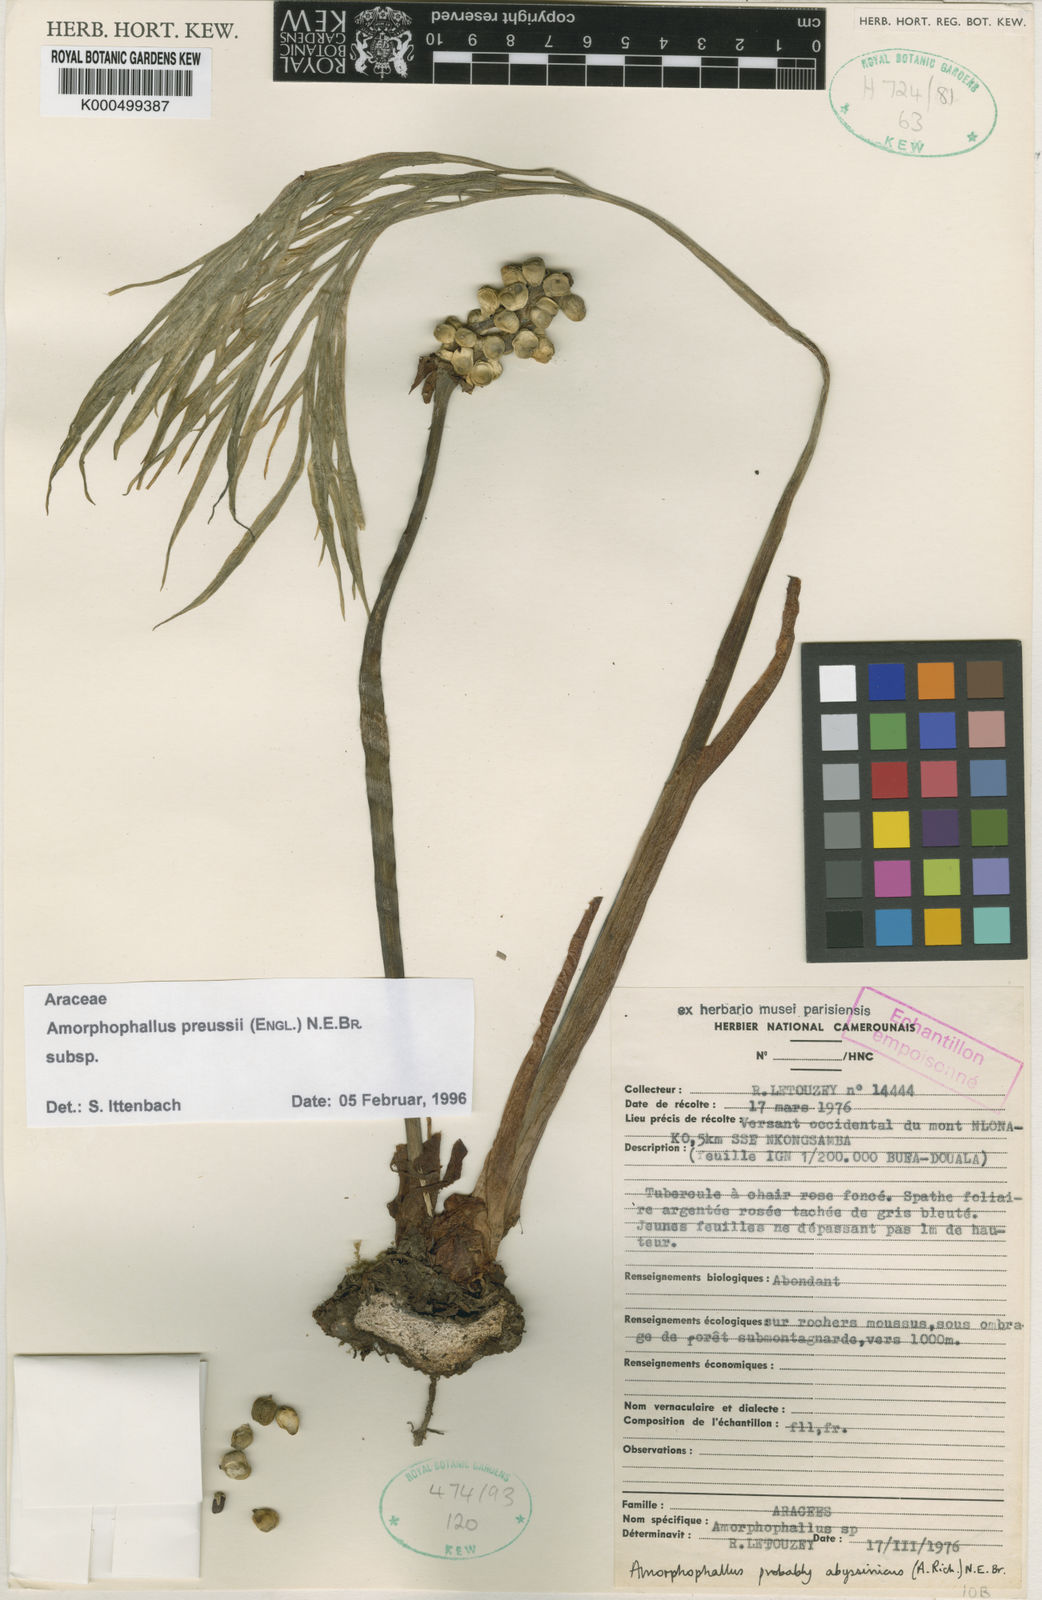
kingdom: Plantae
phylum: Tracheophyta
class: Liliopsida
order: Alismatales
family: Araceae
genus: Amorphophallus
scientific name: Amorphophallus preussii
